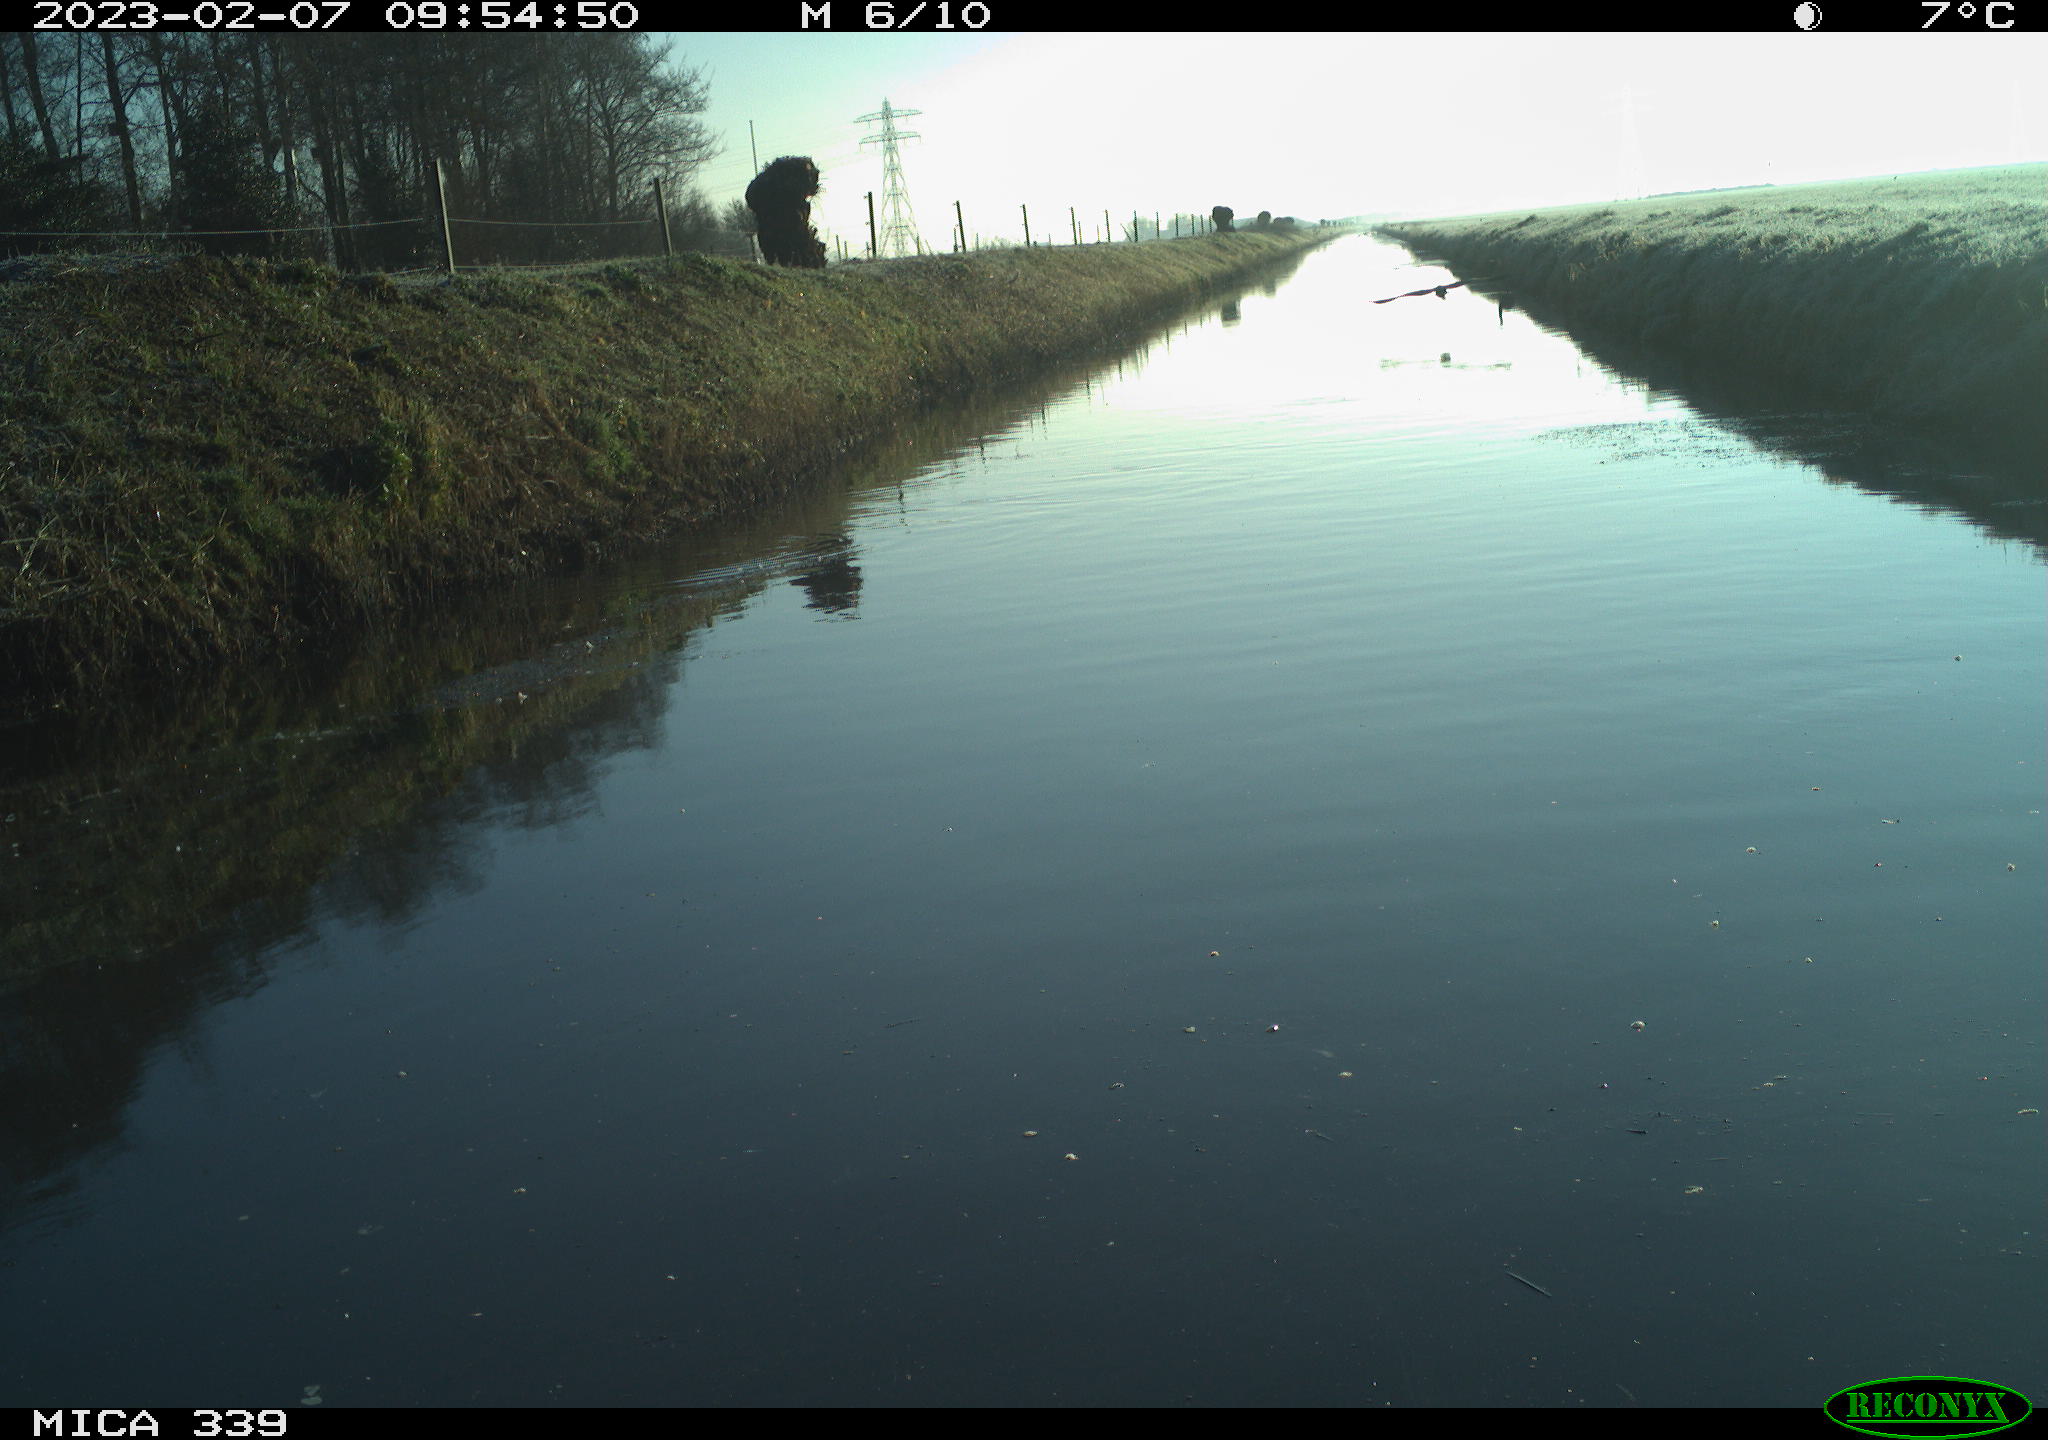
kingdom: Animalia
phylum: Chordata
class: Aves
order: Pelecaniformes
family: Ardeidae
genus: Ardea
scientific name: Ardea cinerea
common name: Grey heron
